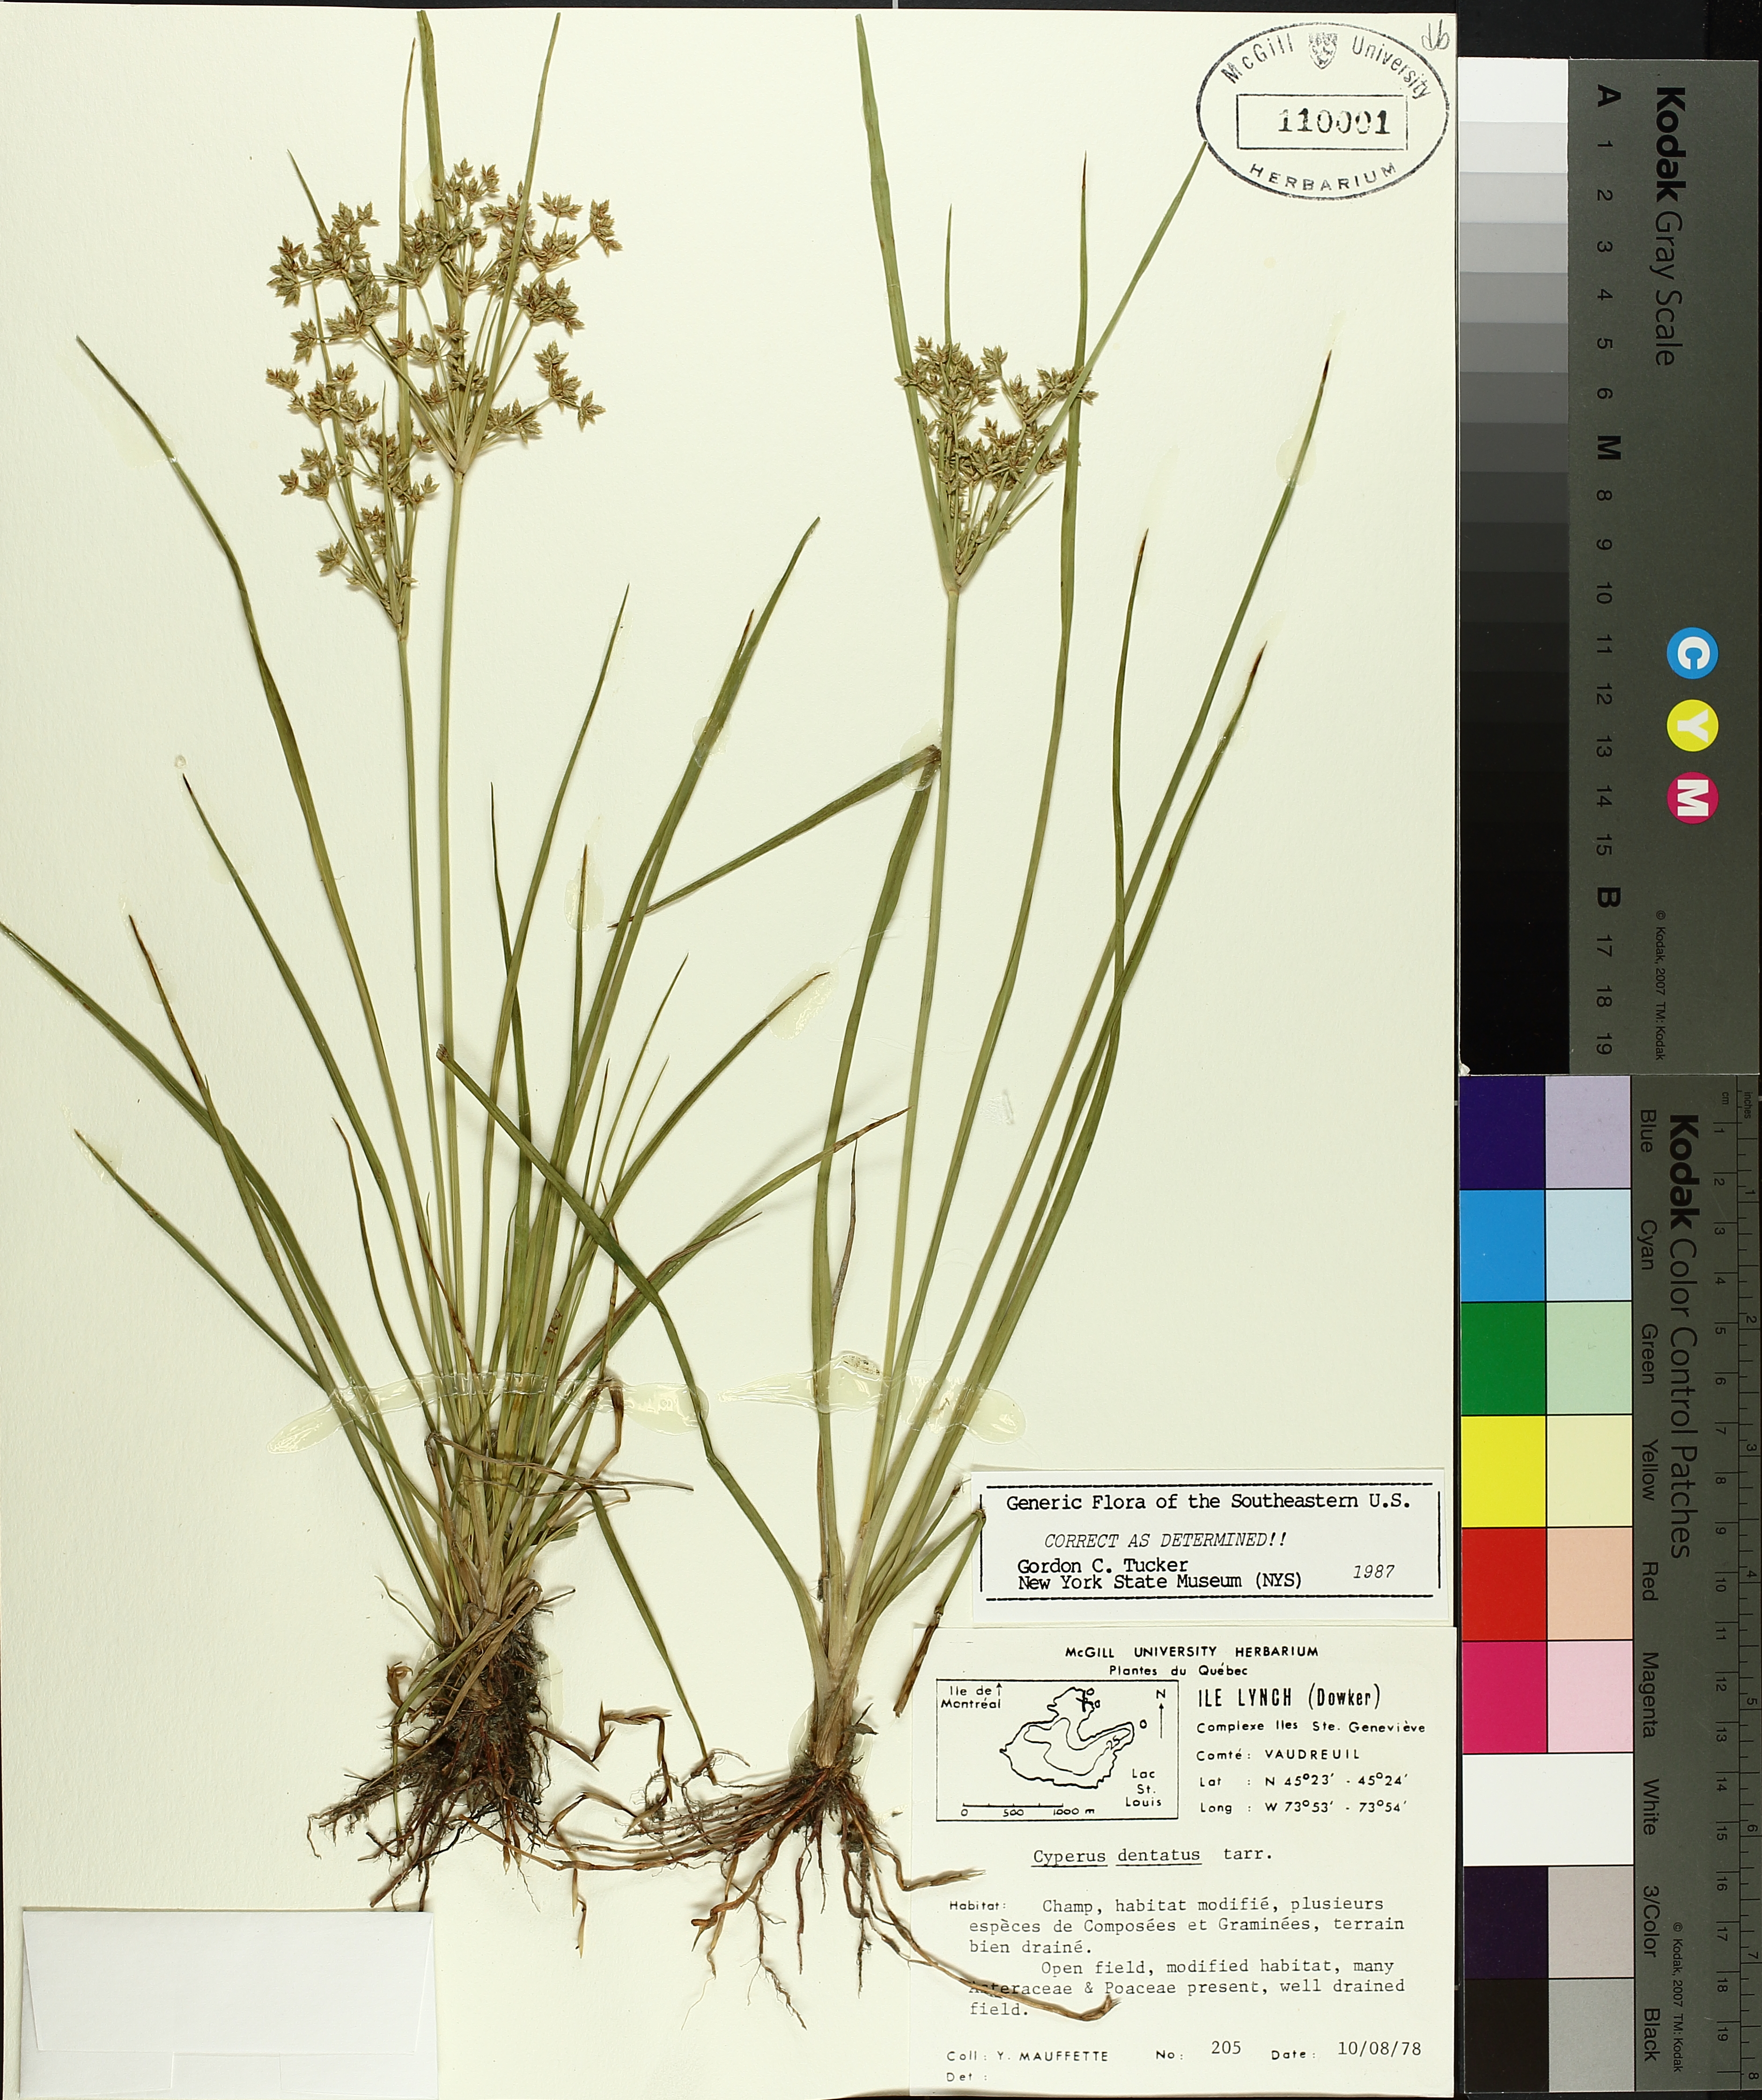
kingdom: Plantae
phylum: Tracheophyta
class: Liliopsida
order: Poales
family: Cyperaceae
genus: Cyperus
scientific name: Cyperus dentatus
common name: Dentate umbrella sedge
